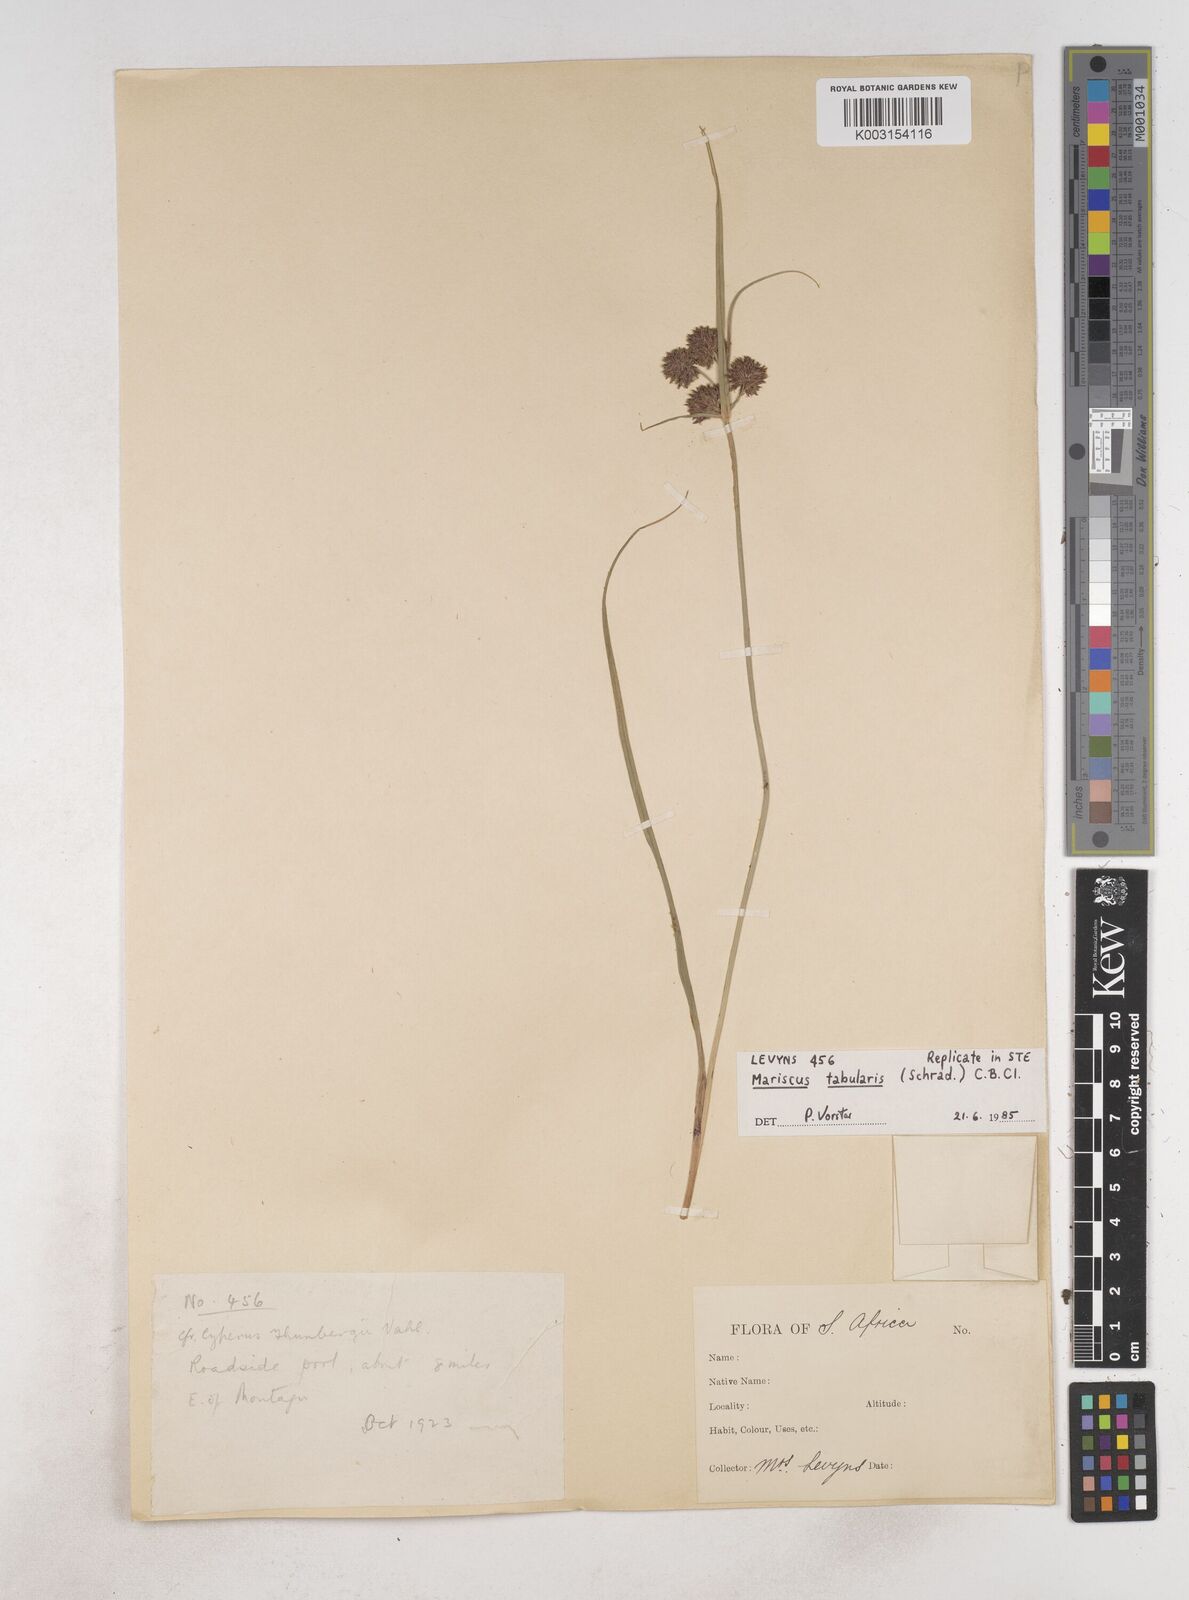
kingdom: Plantae
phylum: Tracheophyta
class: Liliopsida
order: Poales
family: Cyperaceae
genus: Cyperus
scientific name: Cyperus tabularis
